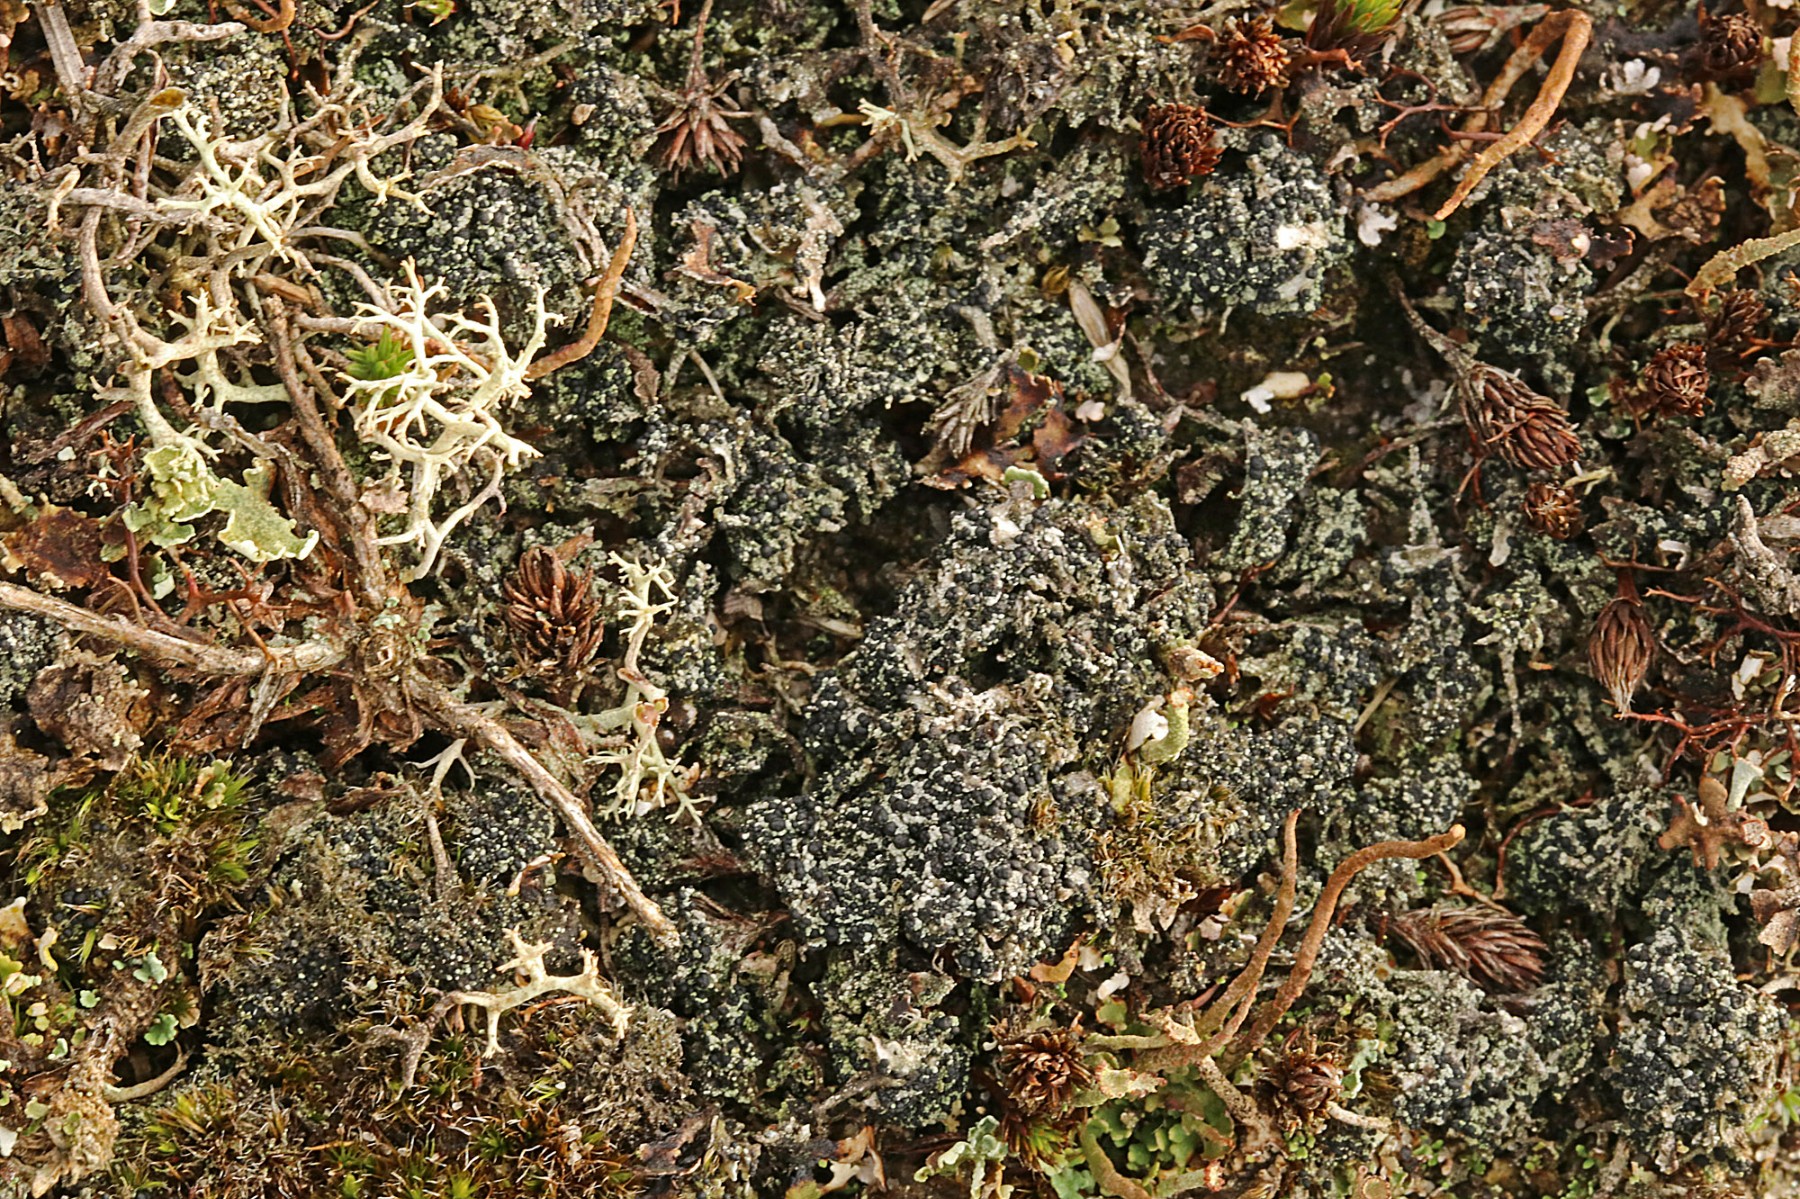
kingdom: Fungi
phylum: Ascomycota
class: Lecanoromycetes
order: Lecanorales
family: Byssolomataceae
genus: Micarea
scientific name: Micarea lignaria
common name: tørve-knaplav
